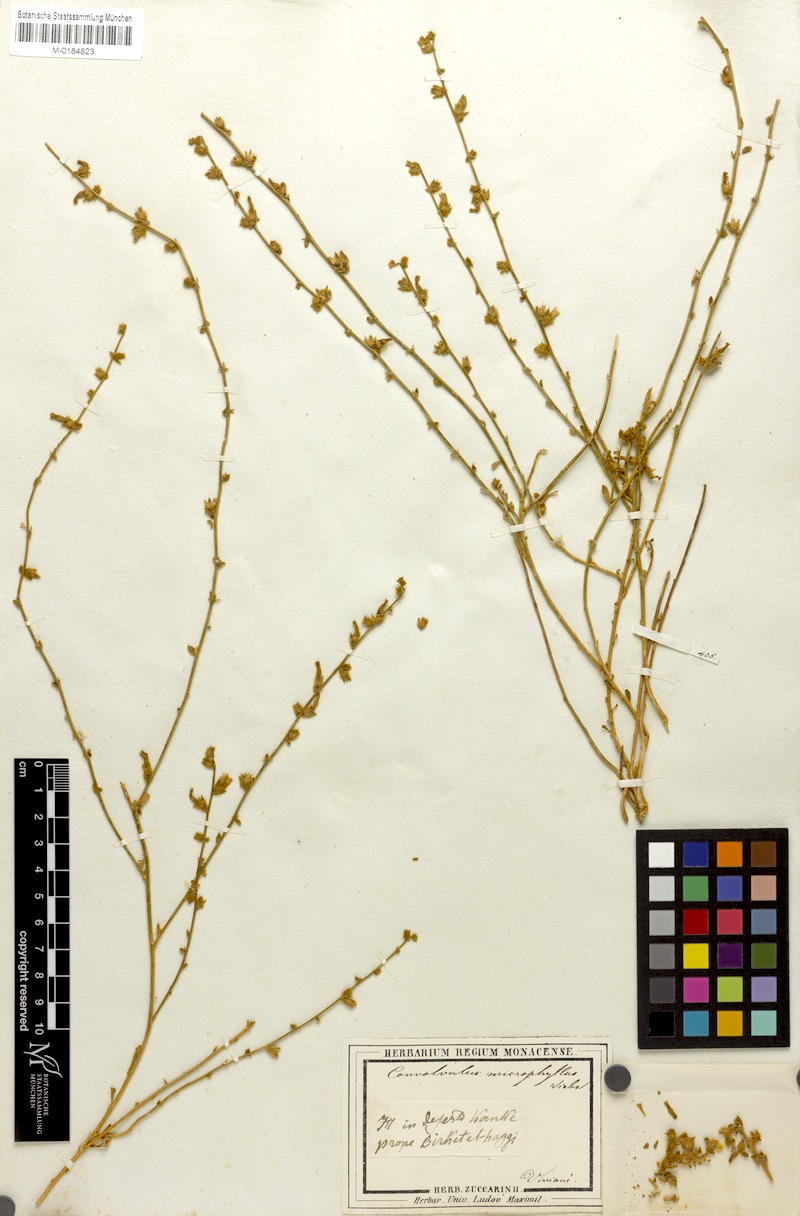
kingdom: Plantae
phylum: Tracheophyta
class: Magnoliopsida
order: Solanales
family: Convolvulaceae
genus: Convolvulus
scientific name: Convolvulus prostratus
